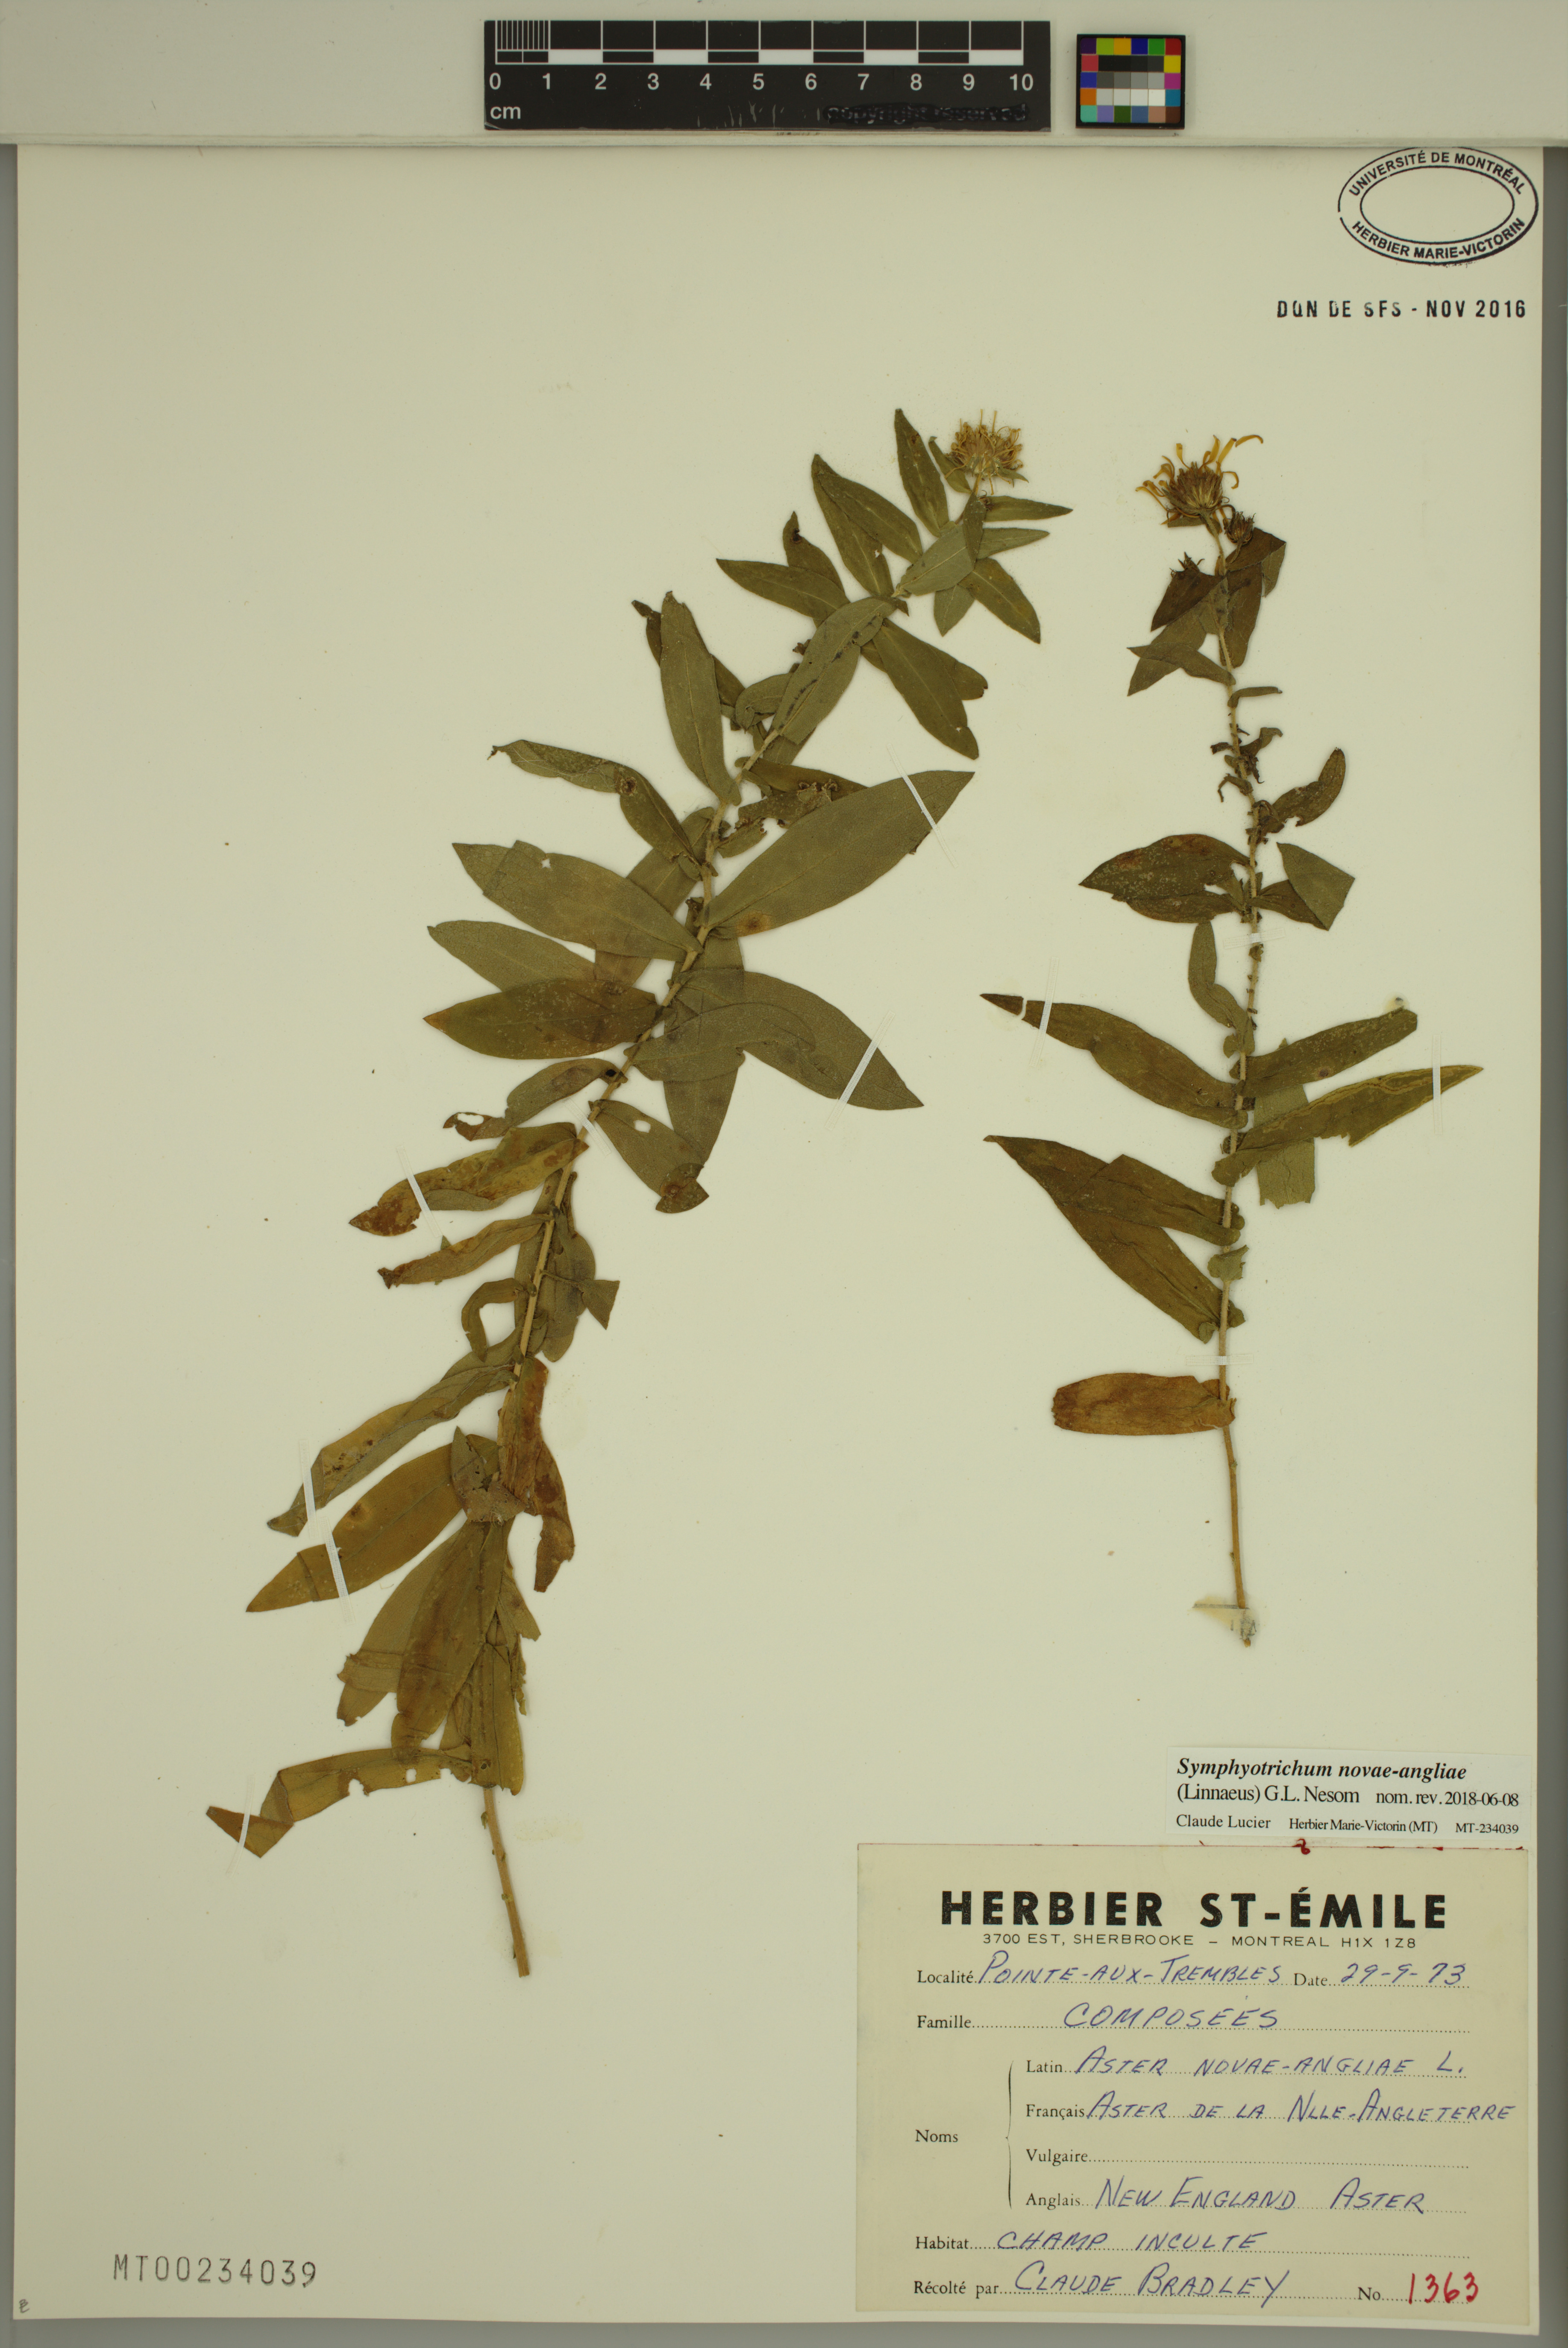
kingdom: Plantae
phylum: Tracheophyta
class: Magnoliopsida
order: Asterales
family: Asteraceae
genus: Symphyotrichum
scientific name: Symphyotrichum novae-angliae
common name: Michaelmas daisy
